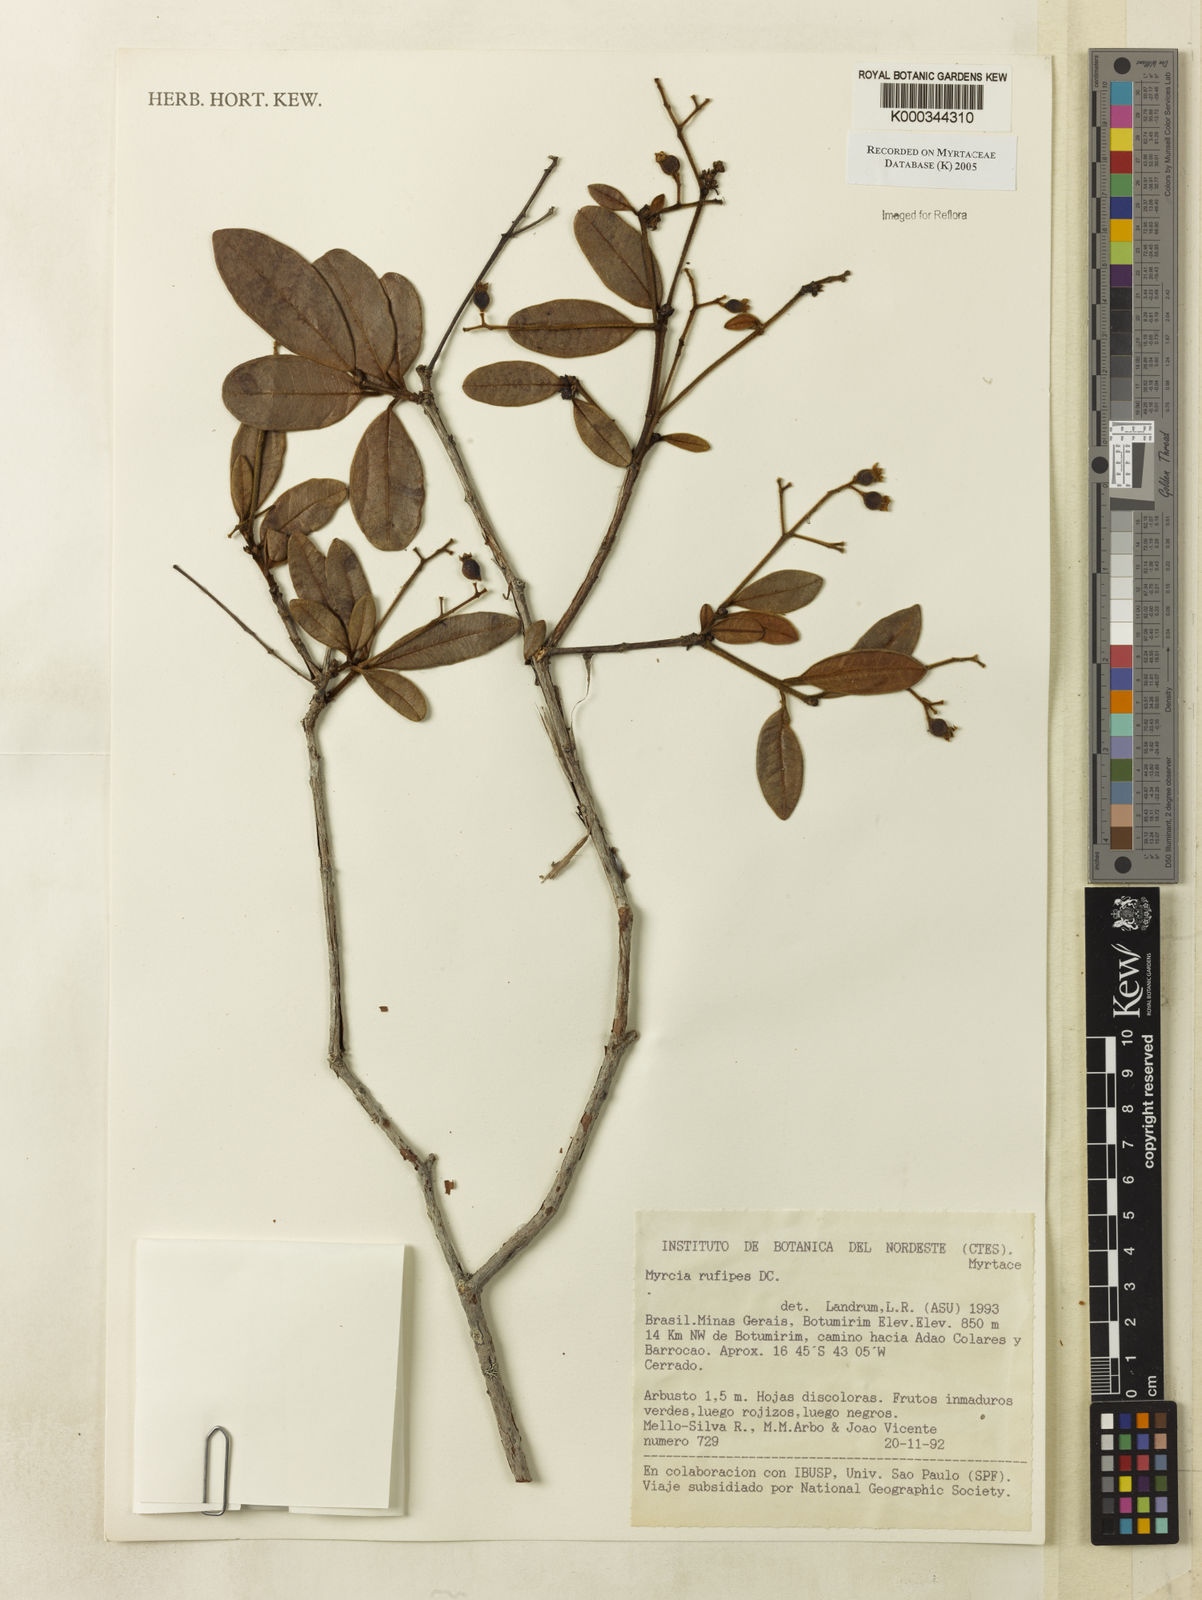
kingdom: Plantae
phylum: Tracheophyta
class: Magnoliopsida
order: Myrtales
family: Myrtaceae
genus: Myrcia
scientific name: Myrcia rufipes
